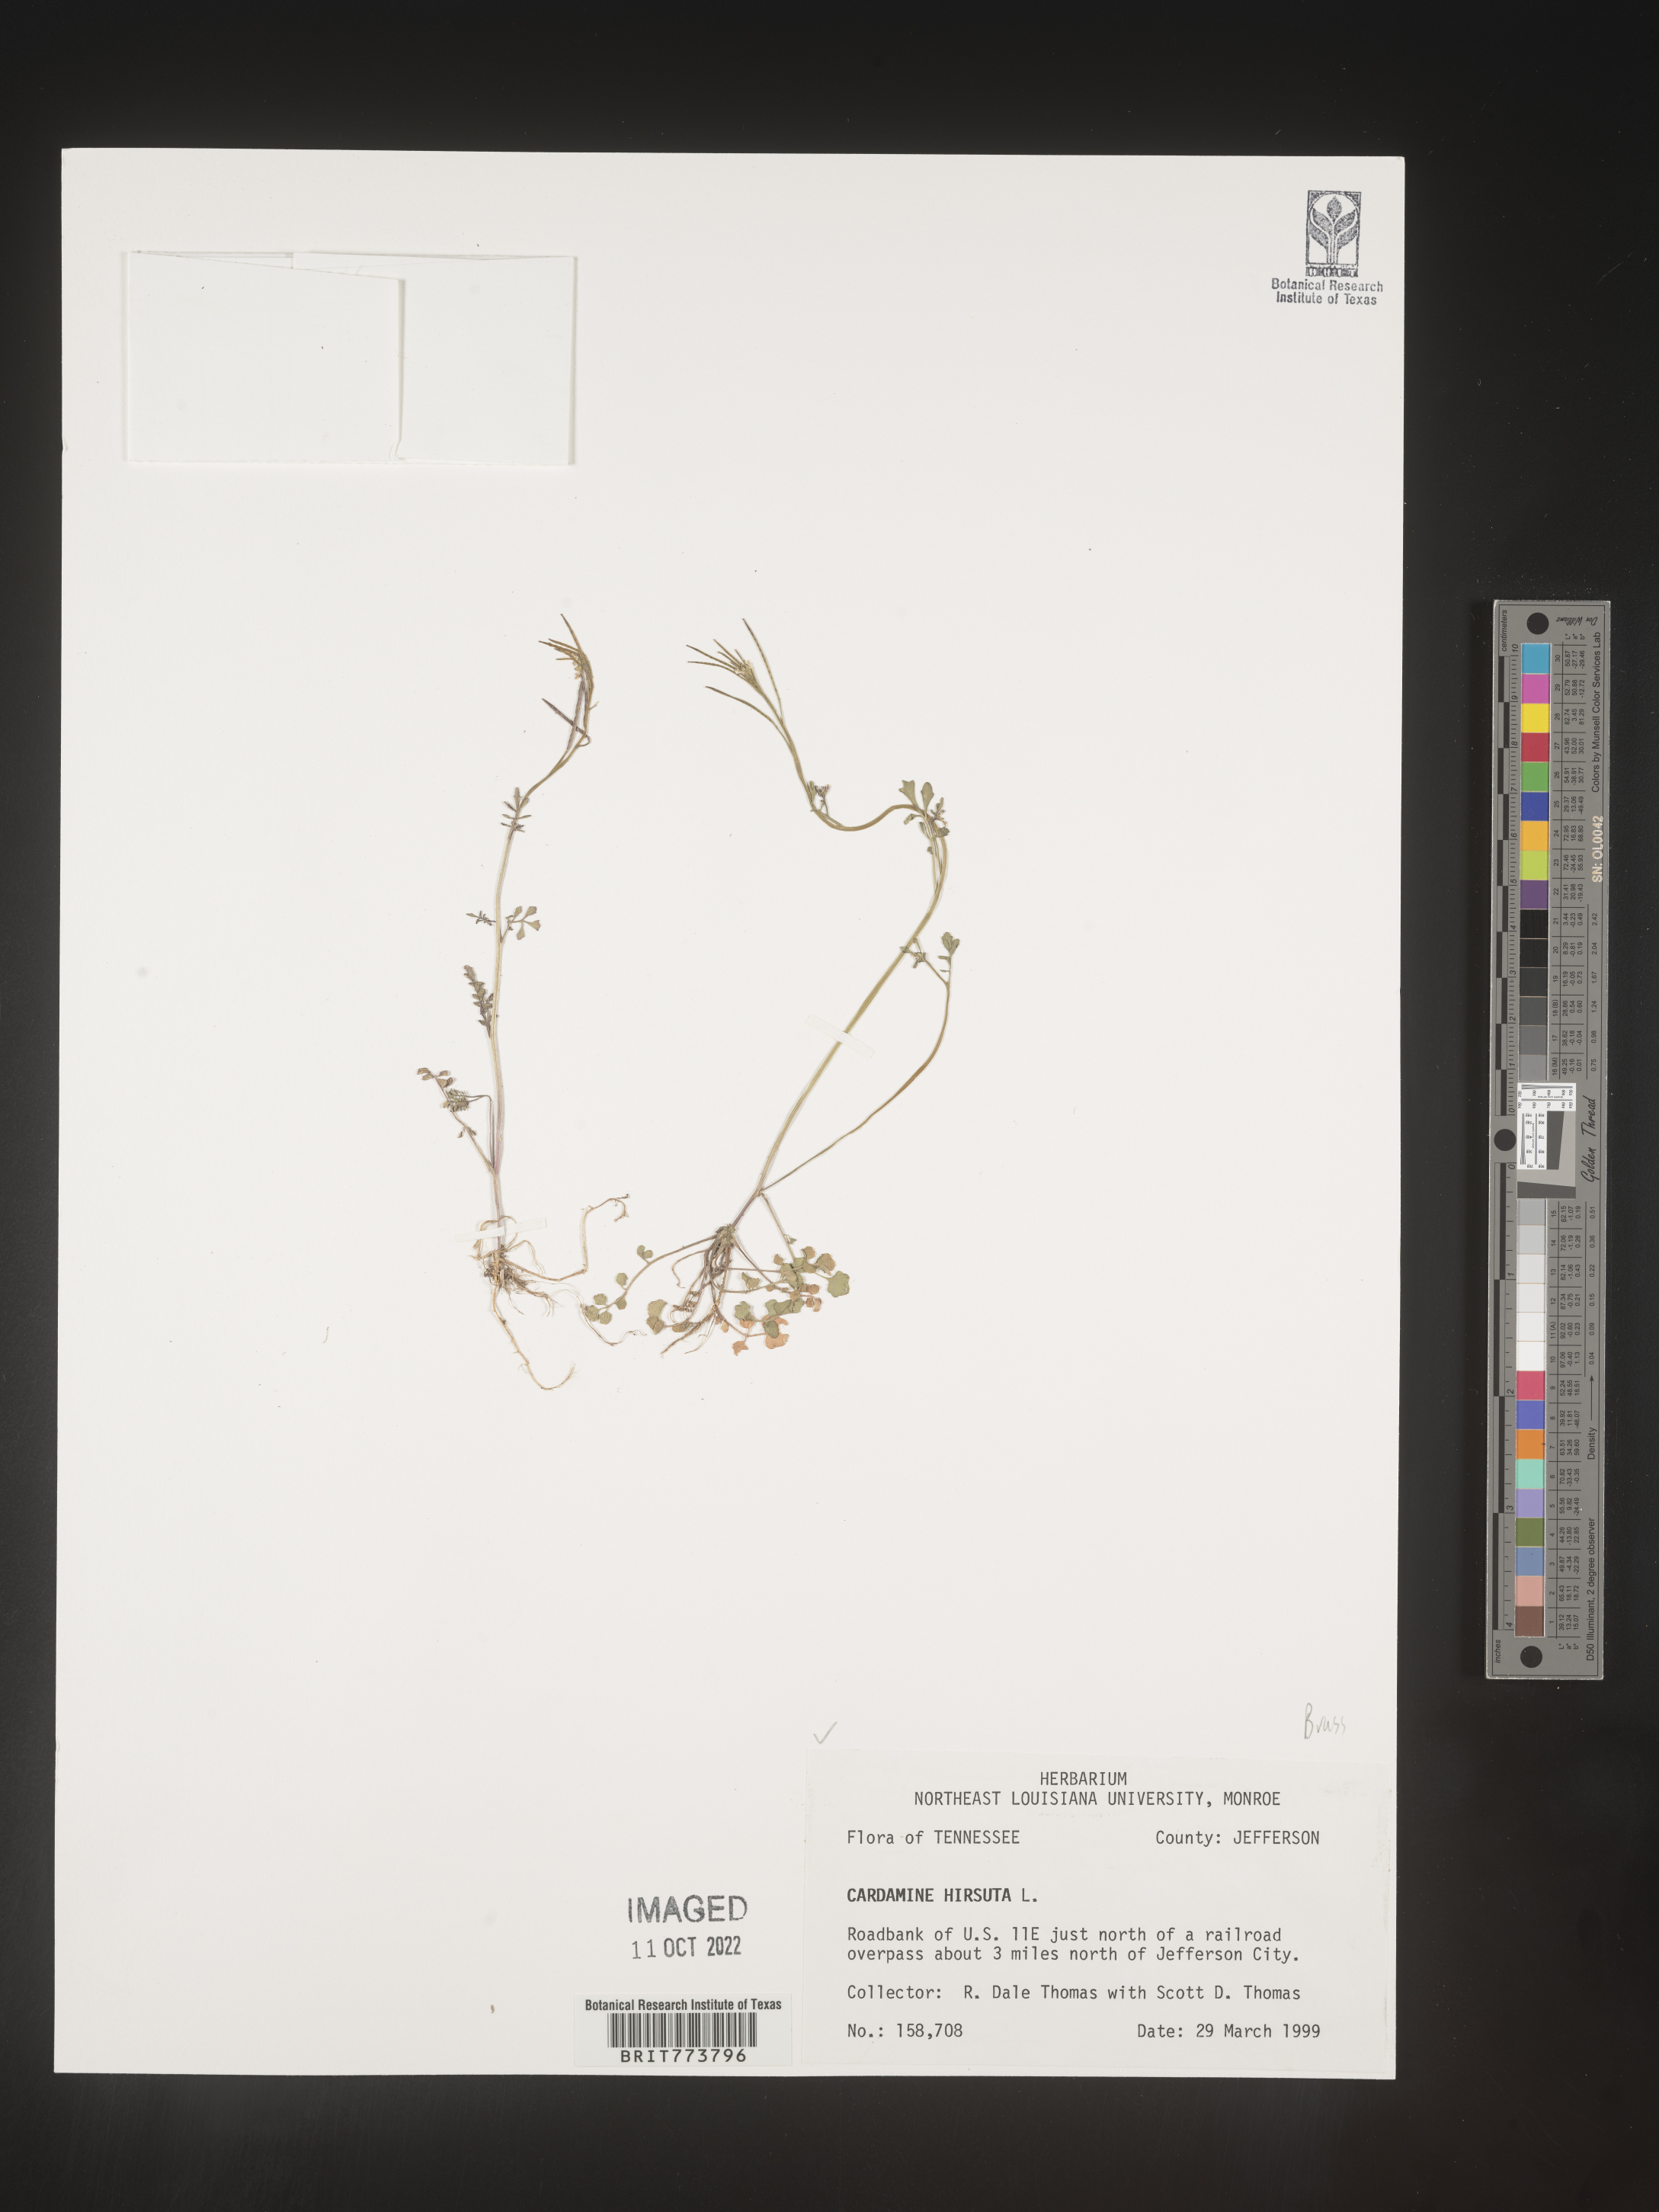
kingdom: Plantae
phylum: Tracheophyta
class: Magnoliopsida
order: Brassicales
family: Brassicaceae
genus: Cardamine
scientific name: Cardamine hirsuta
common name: Hairy bittercress
